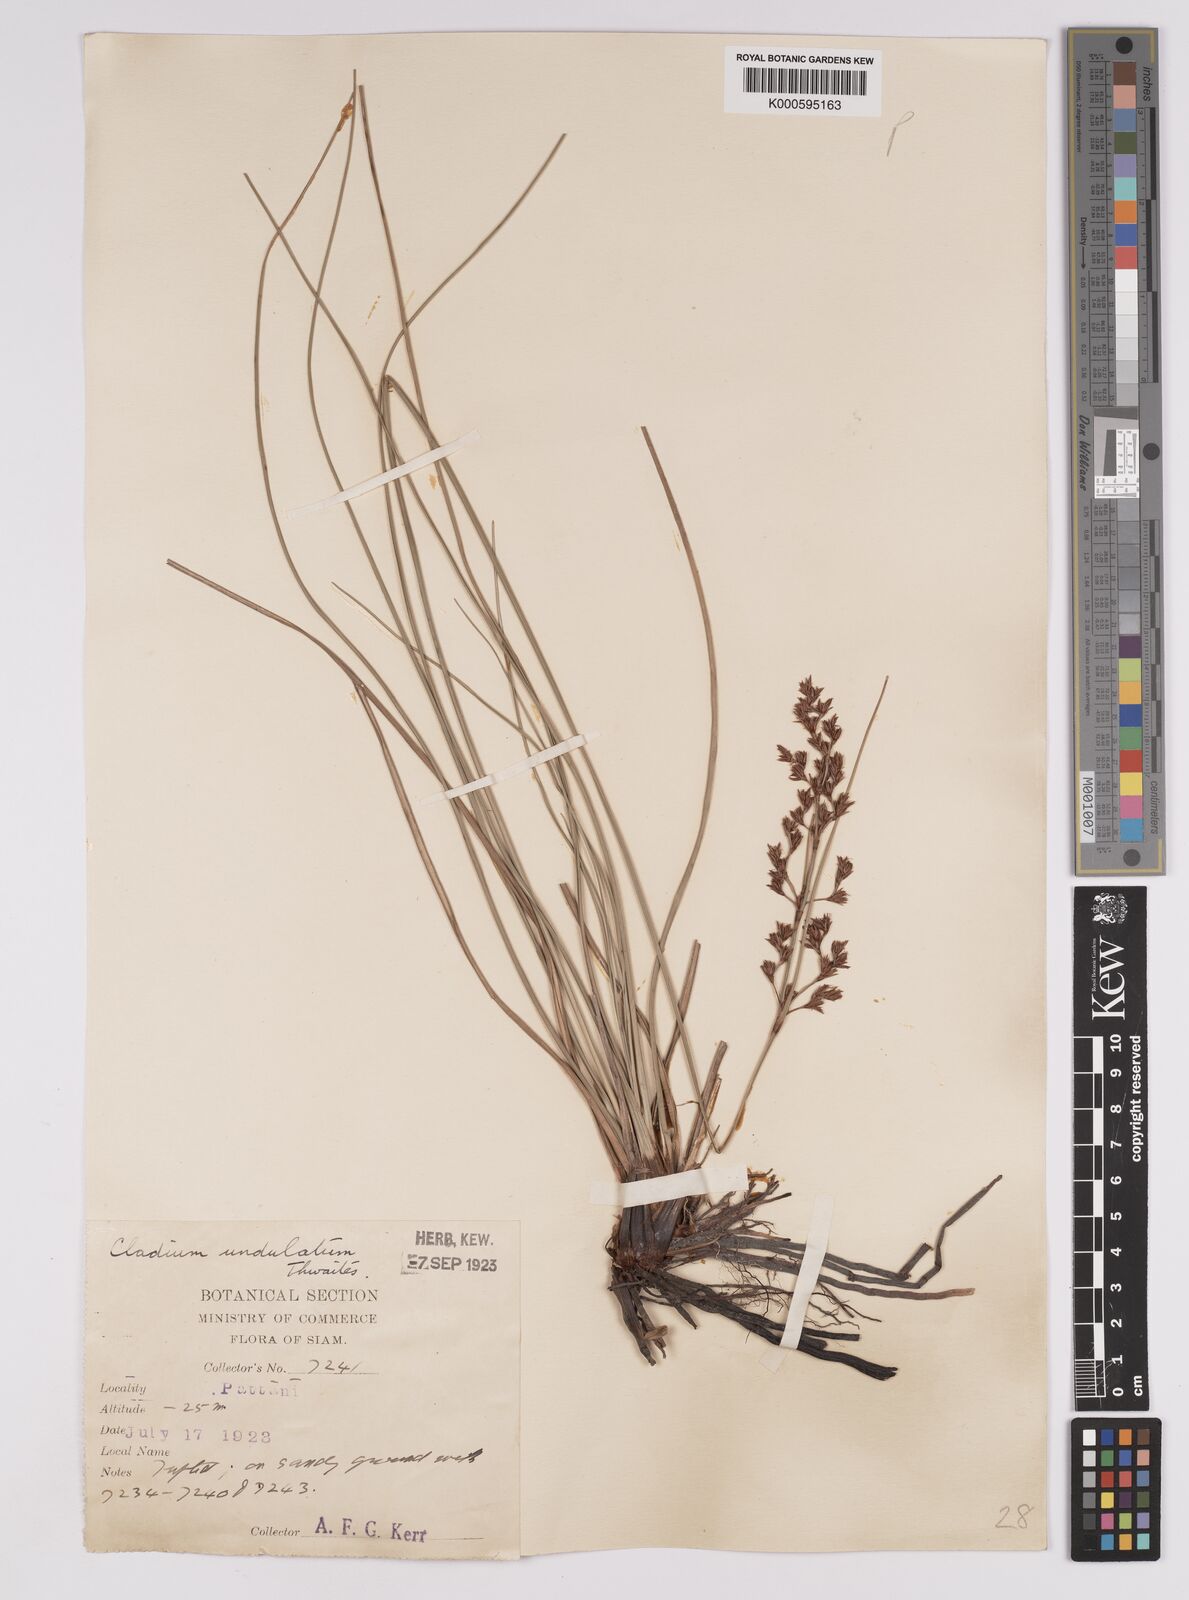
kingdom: Plantae
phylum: Tracheophyta
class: Liliopsida
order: Poales
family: Cyperaceae
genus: Anthelepis
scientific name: Anthelepis undulata
